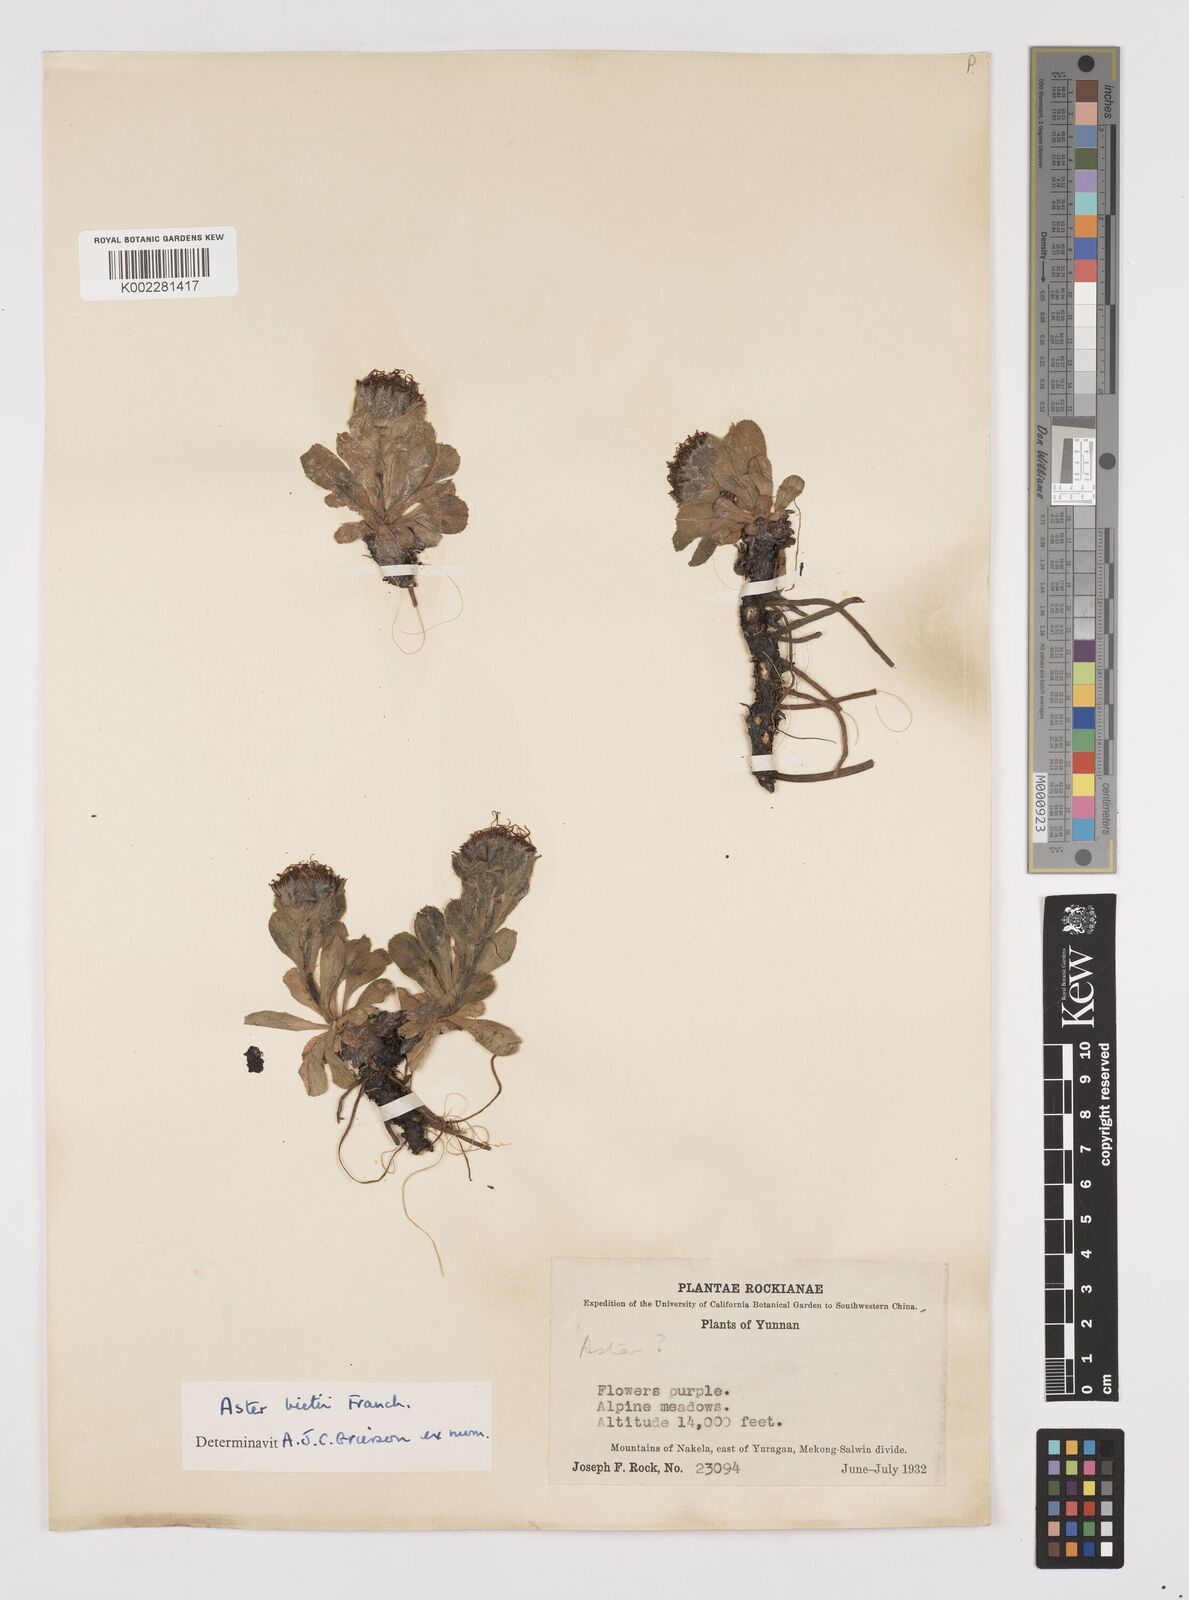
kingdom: Plantae
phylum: Tracheophyta
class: Magnoliopsida
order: Asterales
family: Asteraceae
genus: Tibetiodes
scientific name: Tibetiodes bietii
